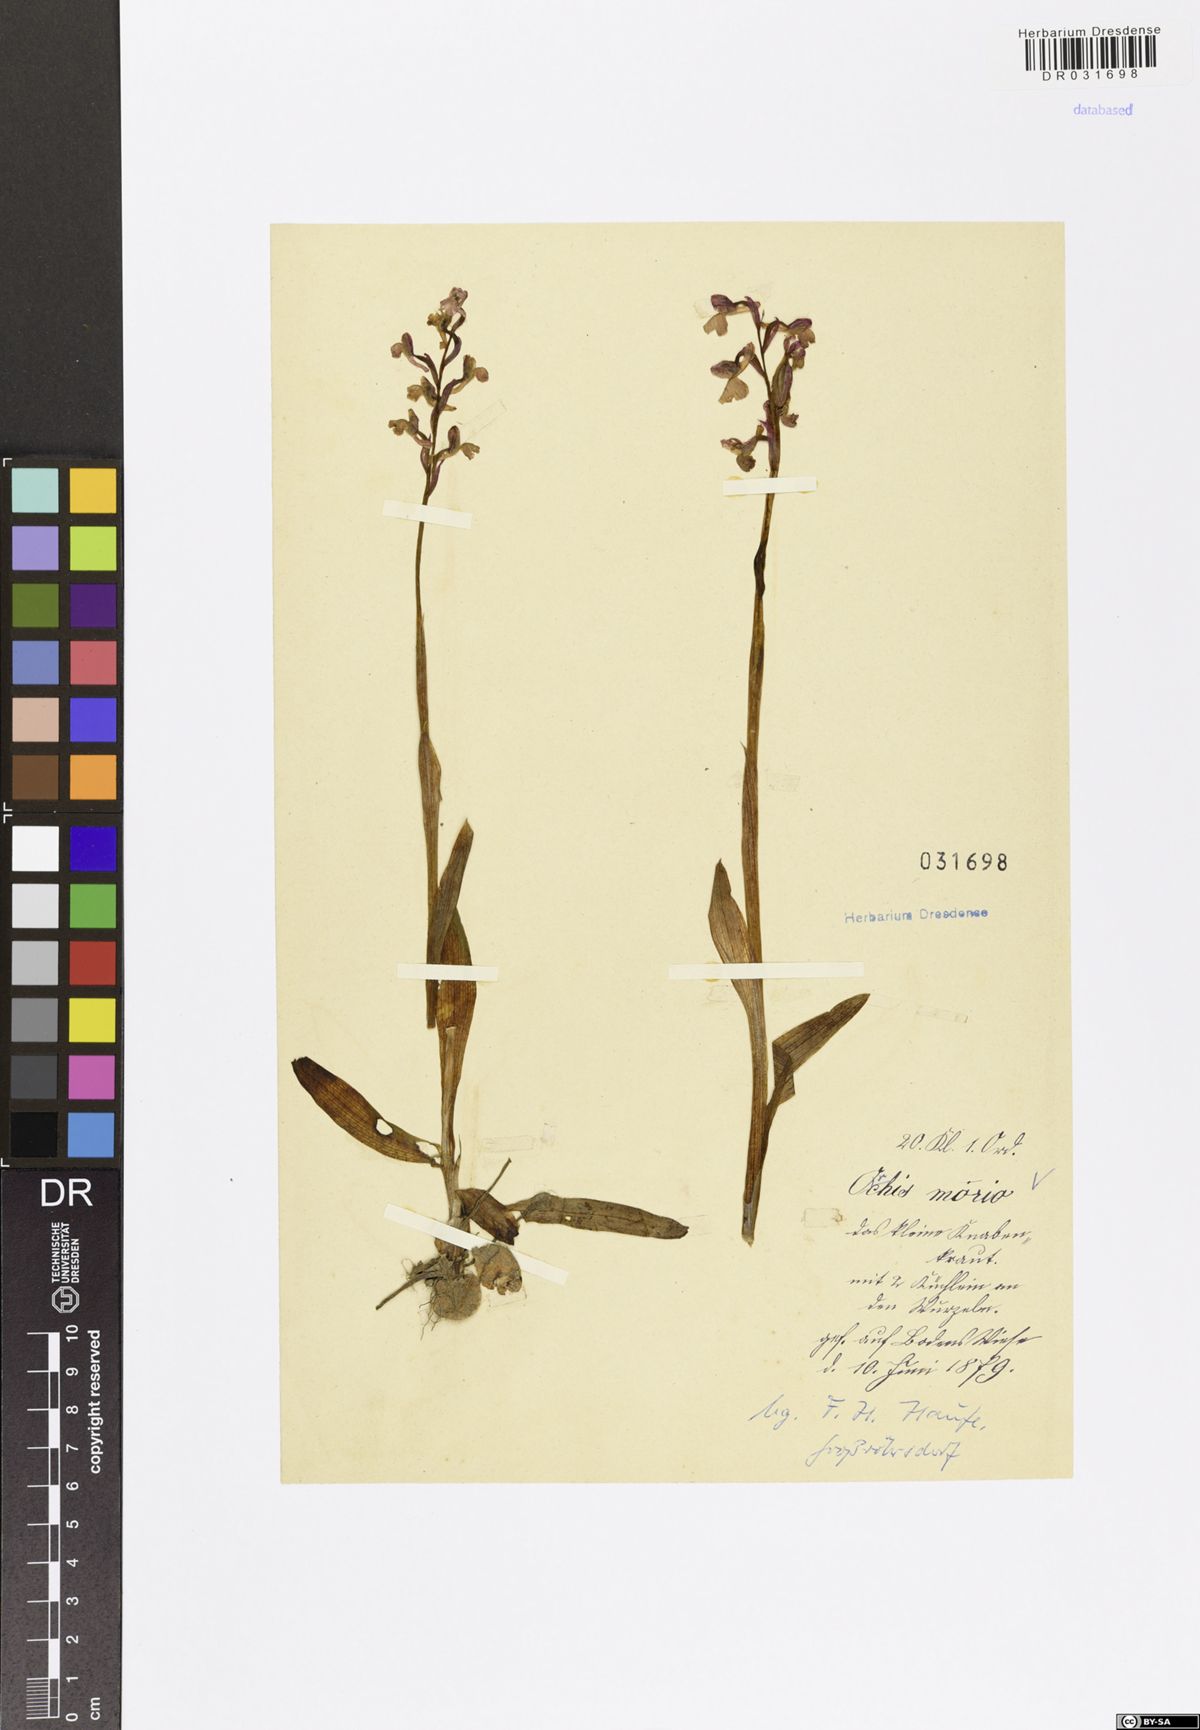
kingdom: Plantae
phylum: Tracheophyta
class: Liliopsida
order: Asparagales
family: Orchidaceae
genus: Anacamptis
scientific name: Anacamptis morio
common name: Green-winged orchid
